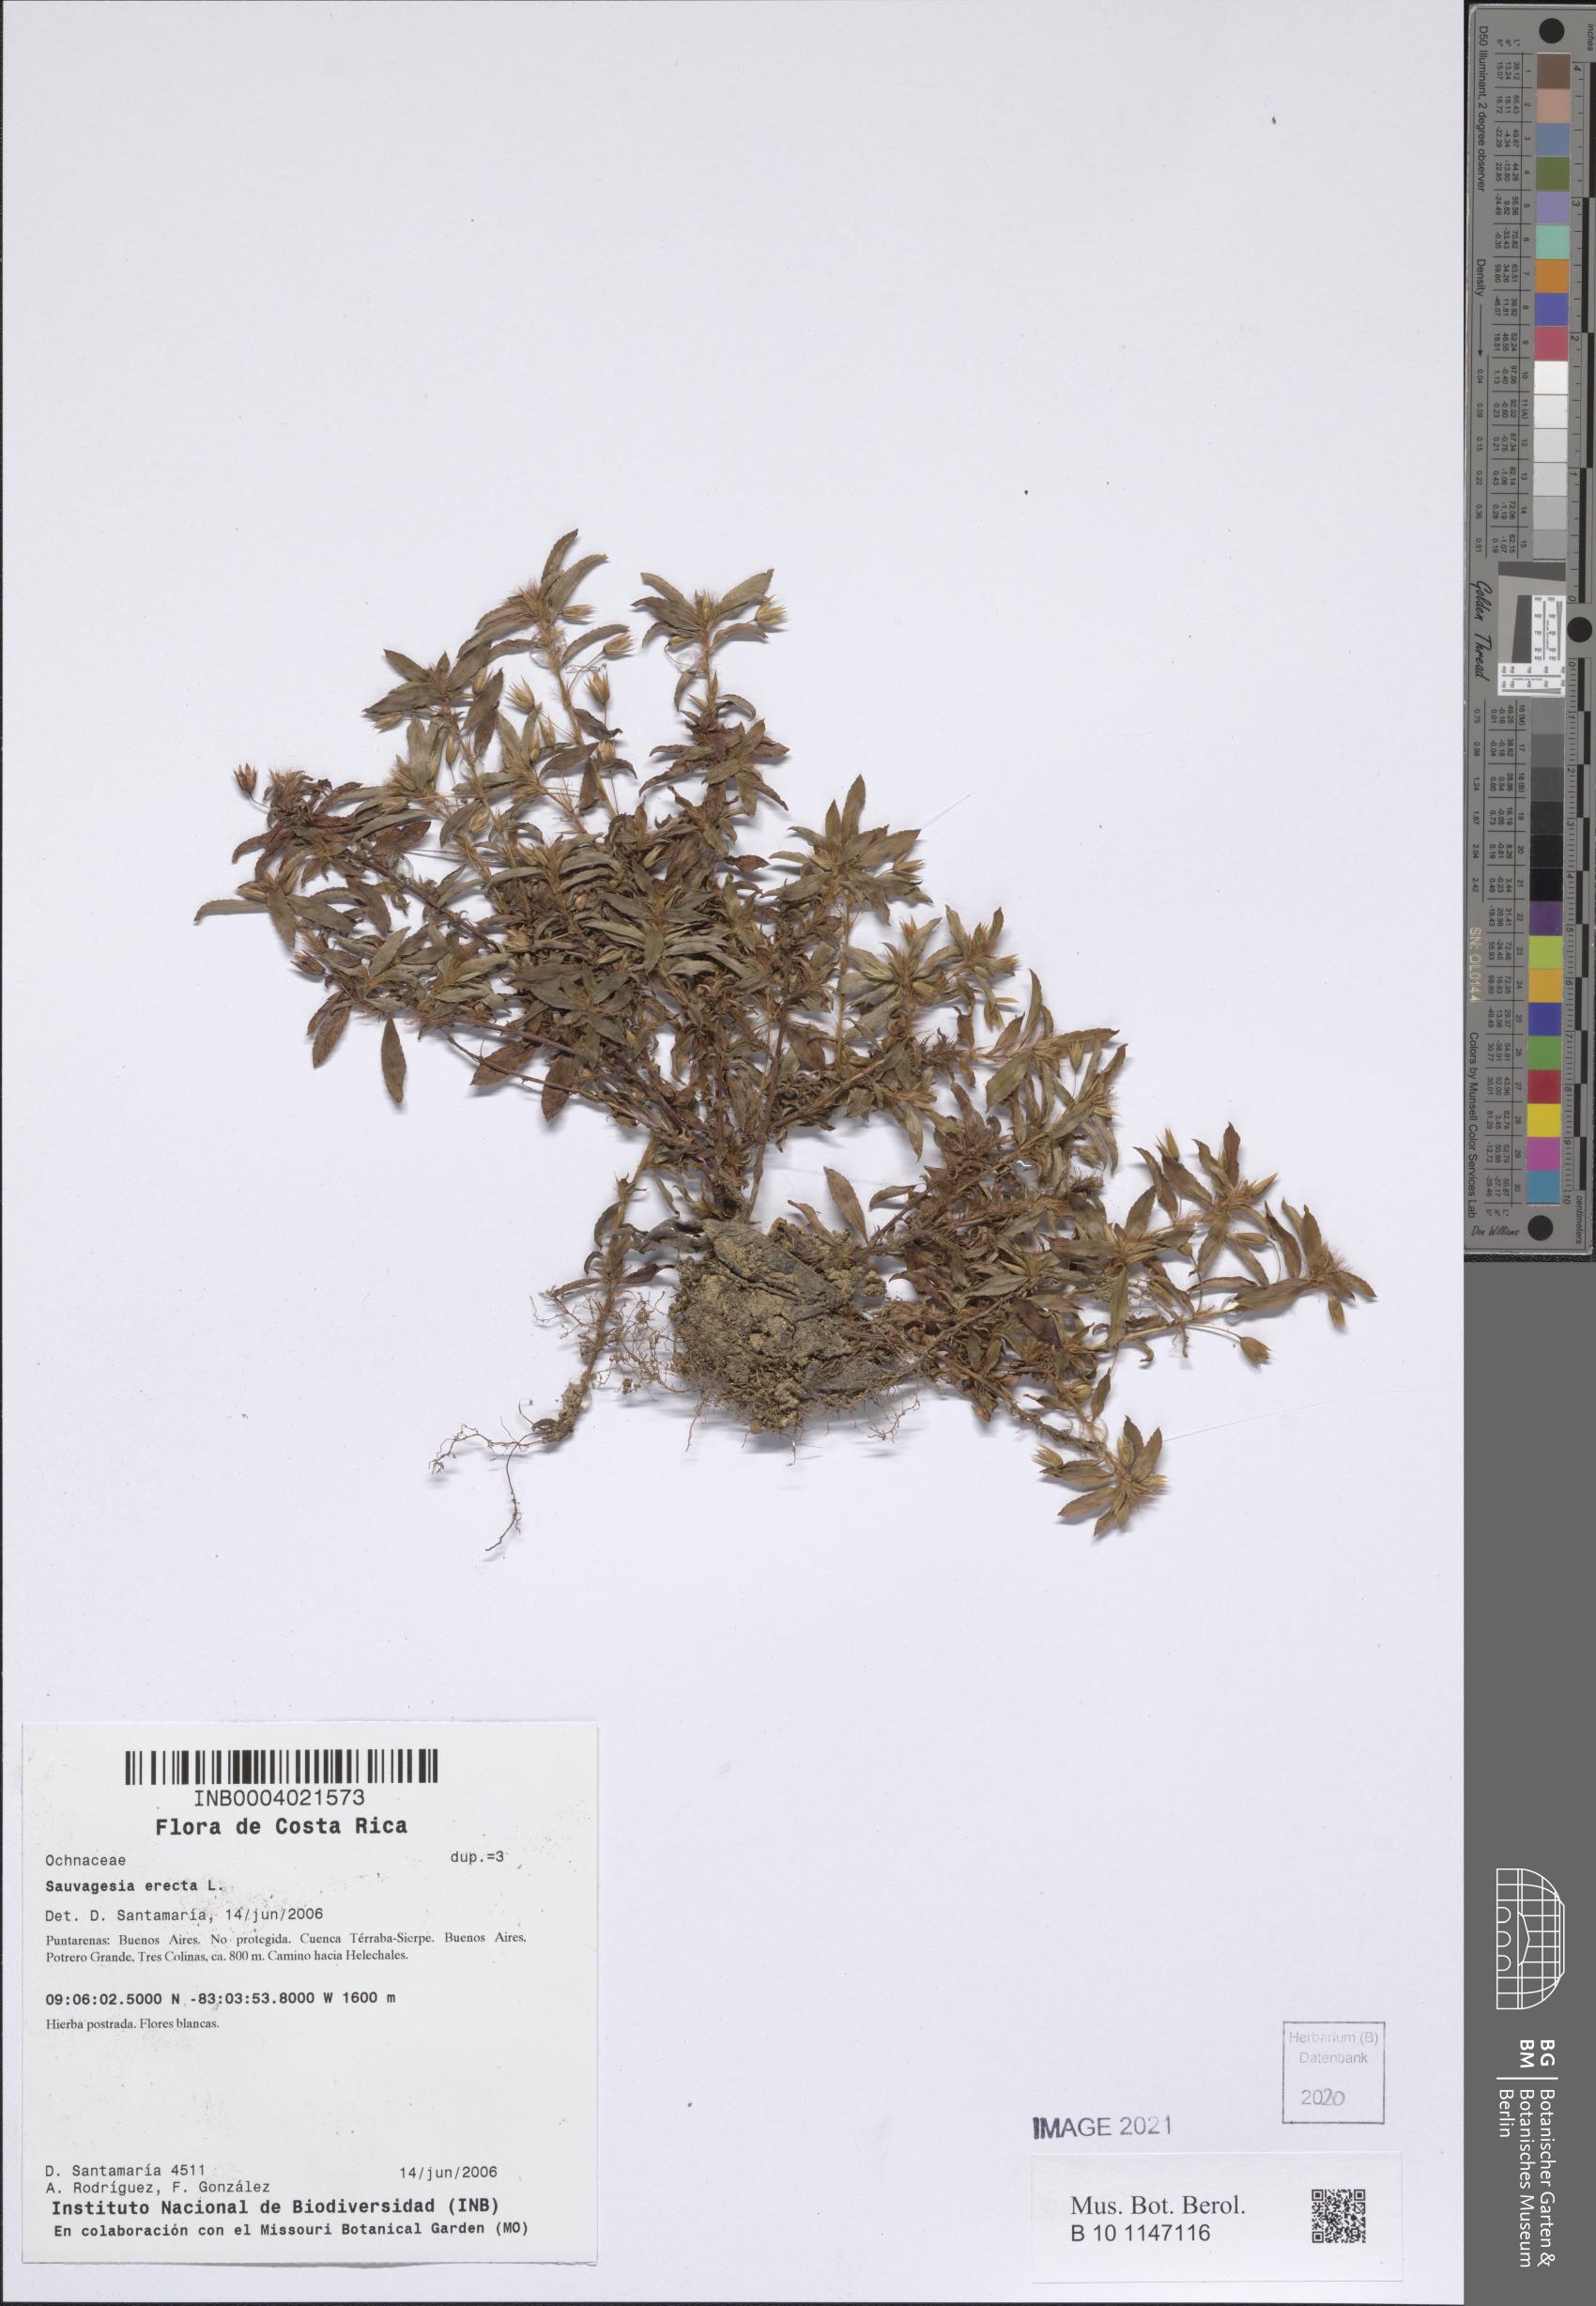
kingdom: Plantae
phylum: Tracheophyta
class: Magnoliopsida
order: Malpighiales
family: Ochnaceae
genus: Sauvagesia
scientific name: Sauvagesia erecta
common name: Creole tea
